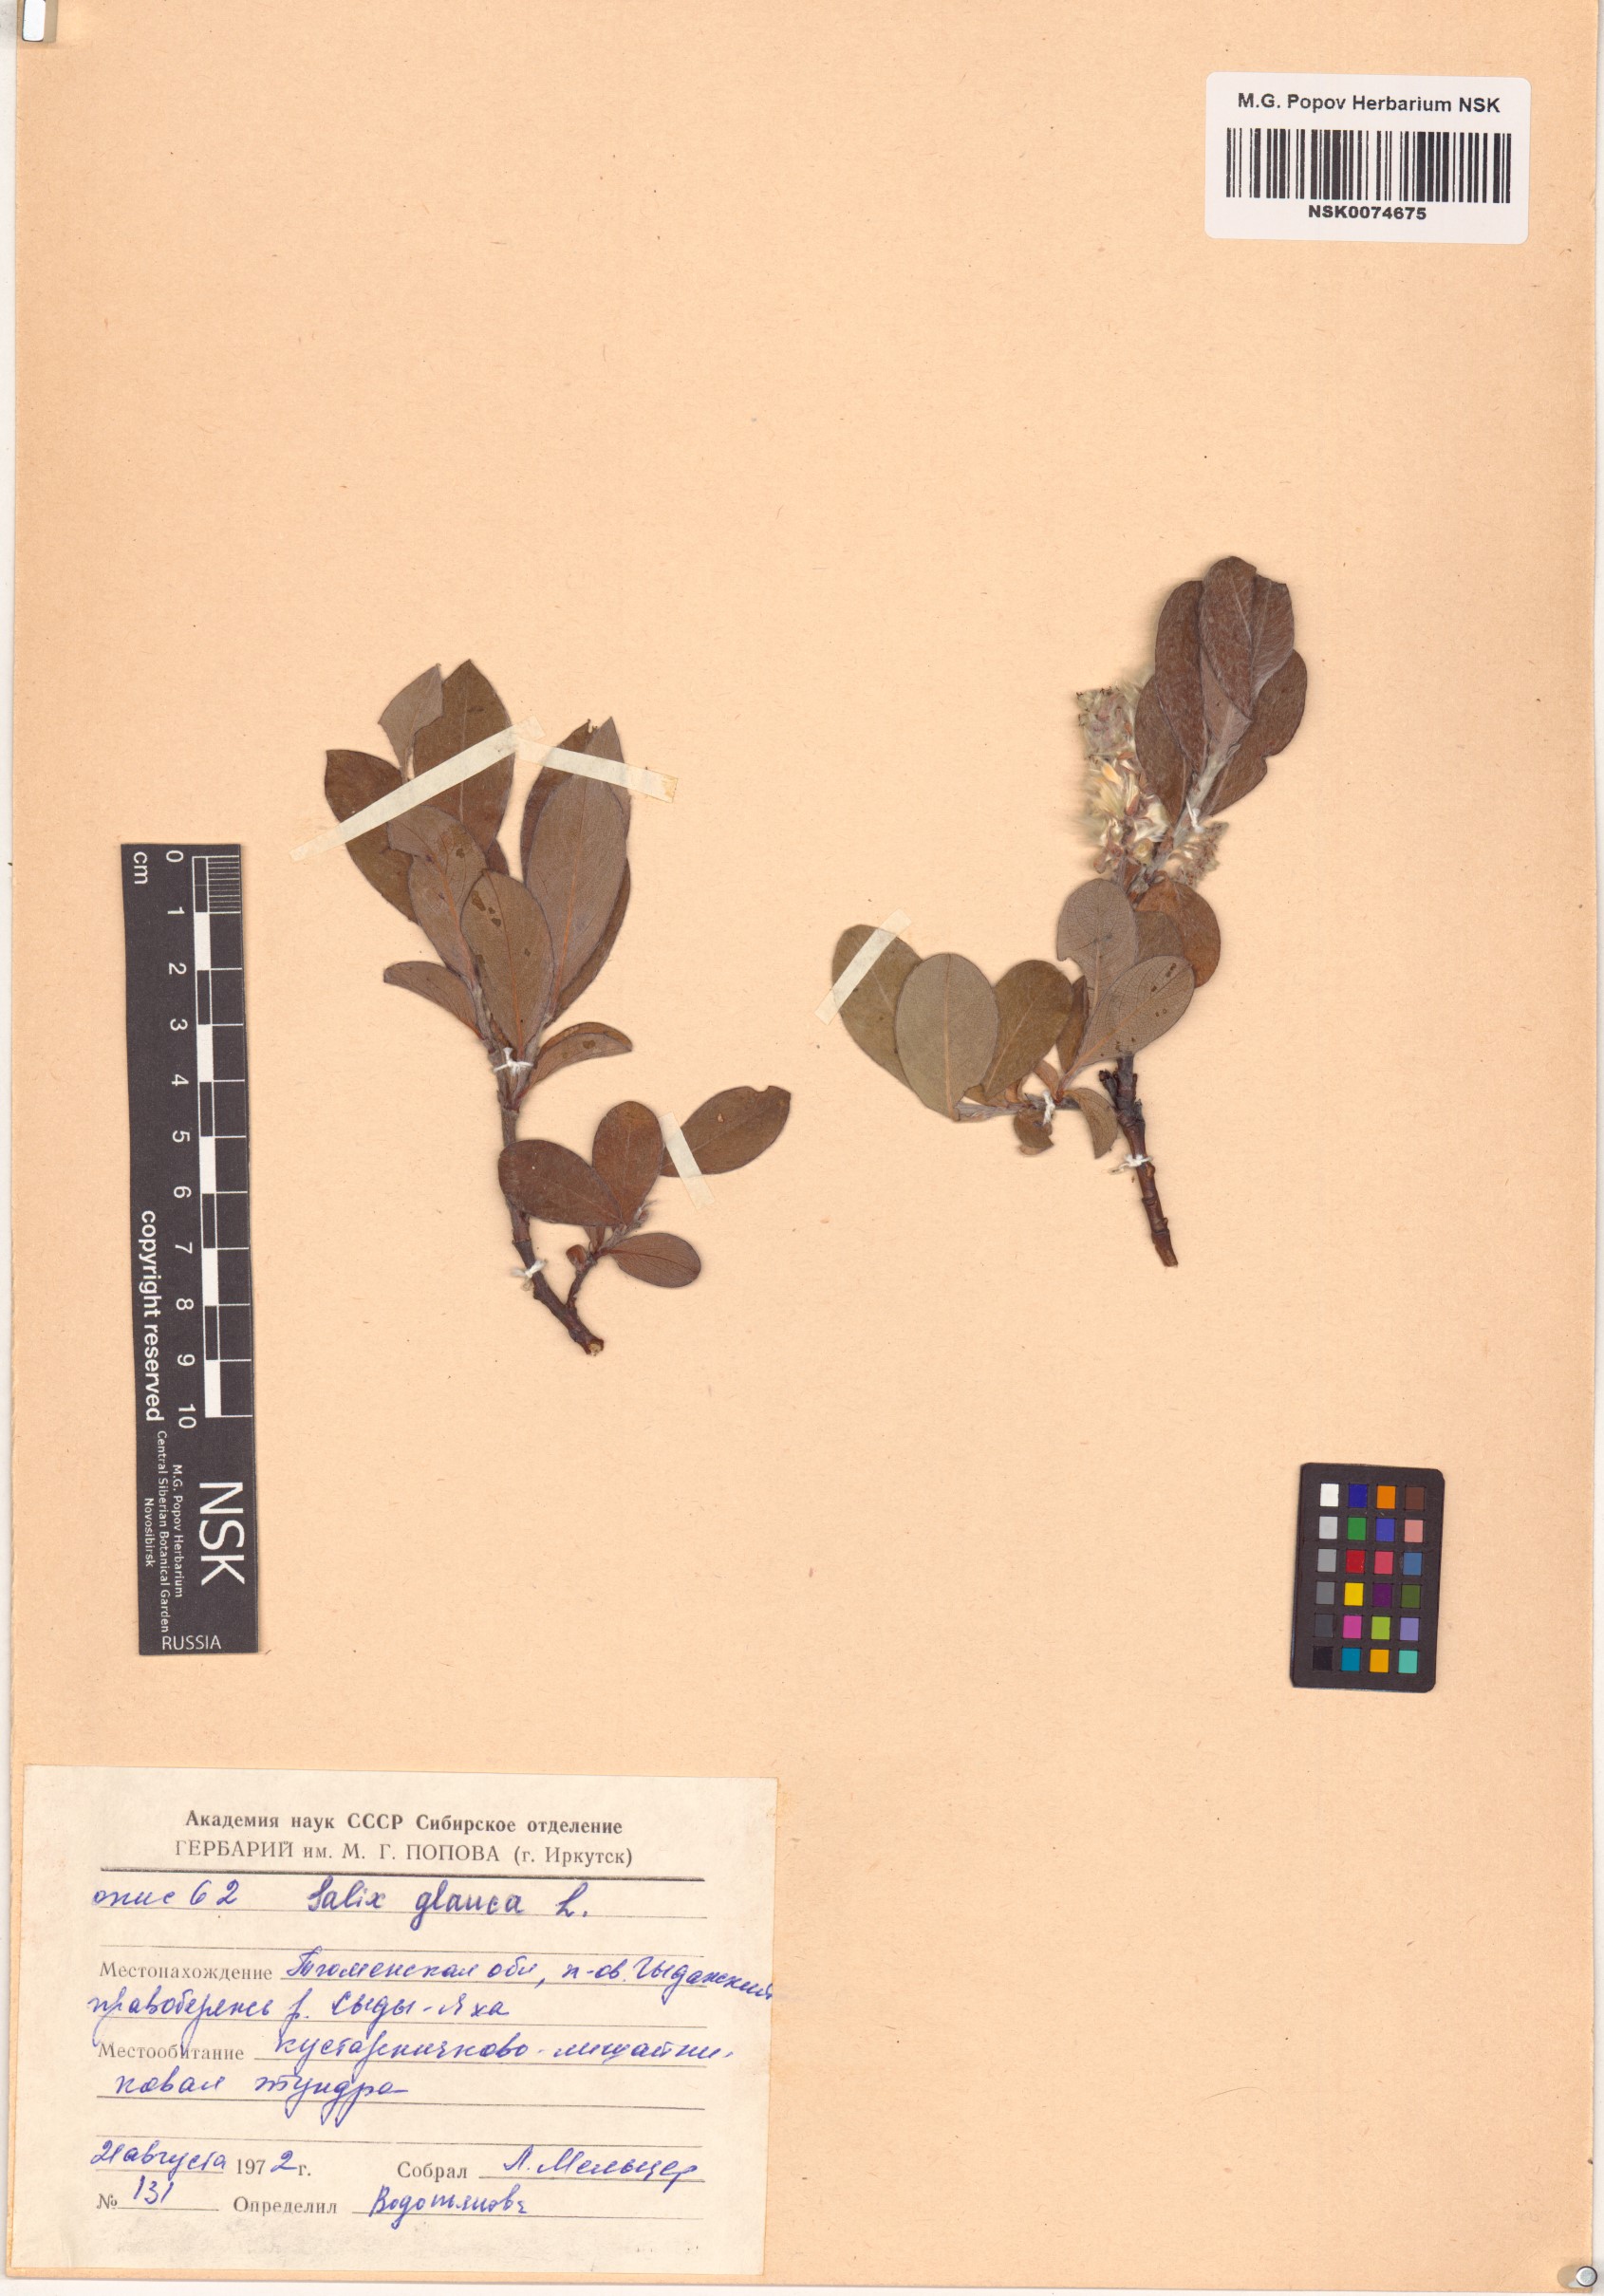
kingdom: Plantae
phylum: Tracheophyta
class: Magnoliopsida
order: Malpighiales
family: Salicaceae
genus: Salix
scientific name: Salix glauca
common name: Glaucous willow
